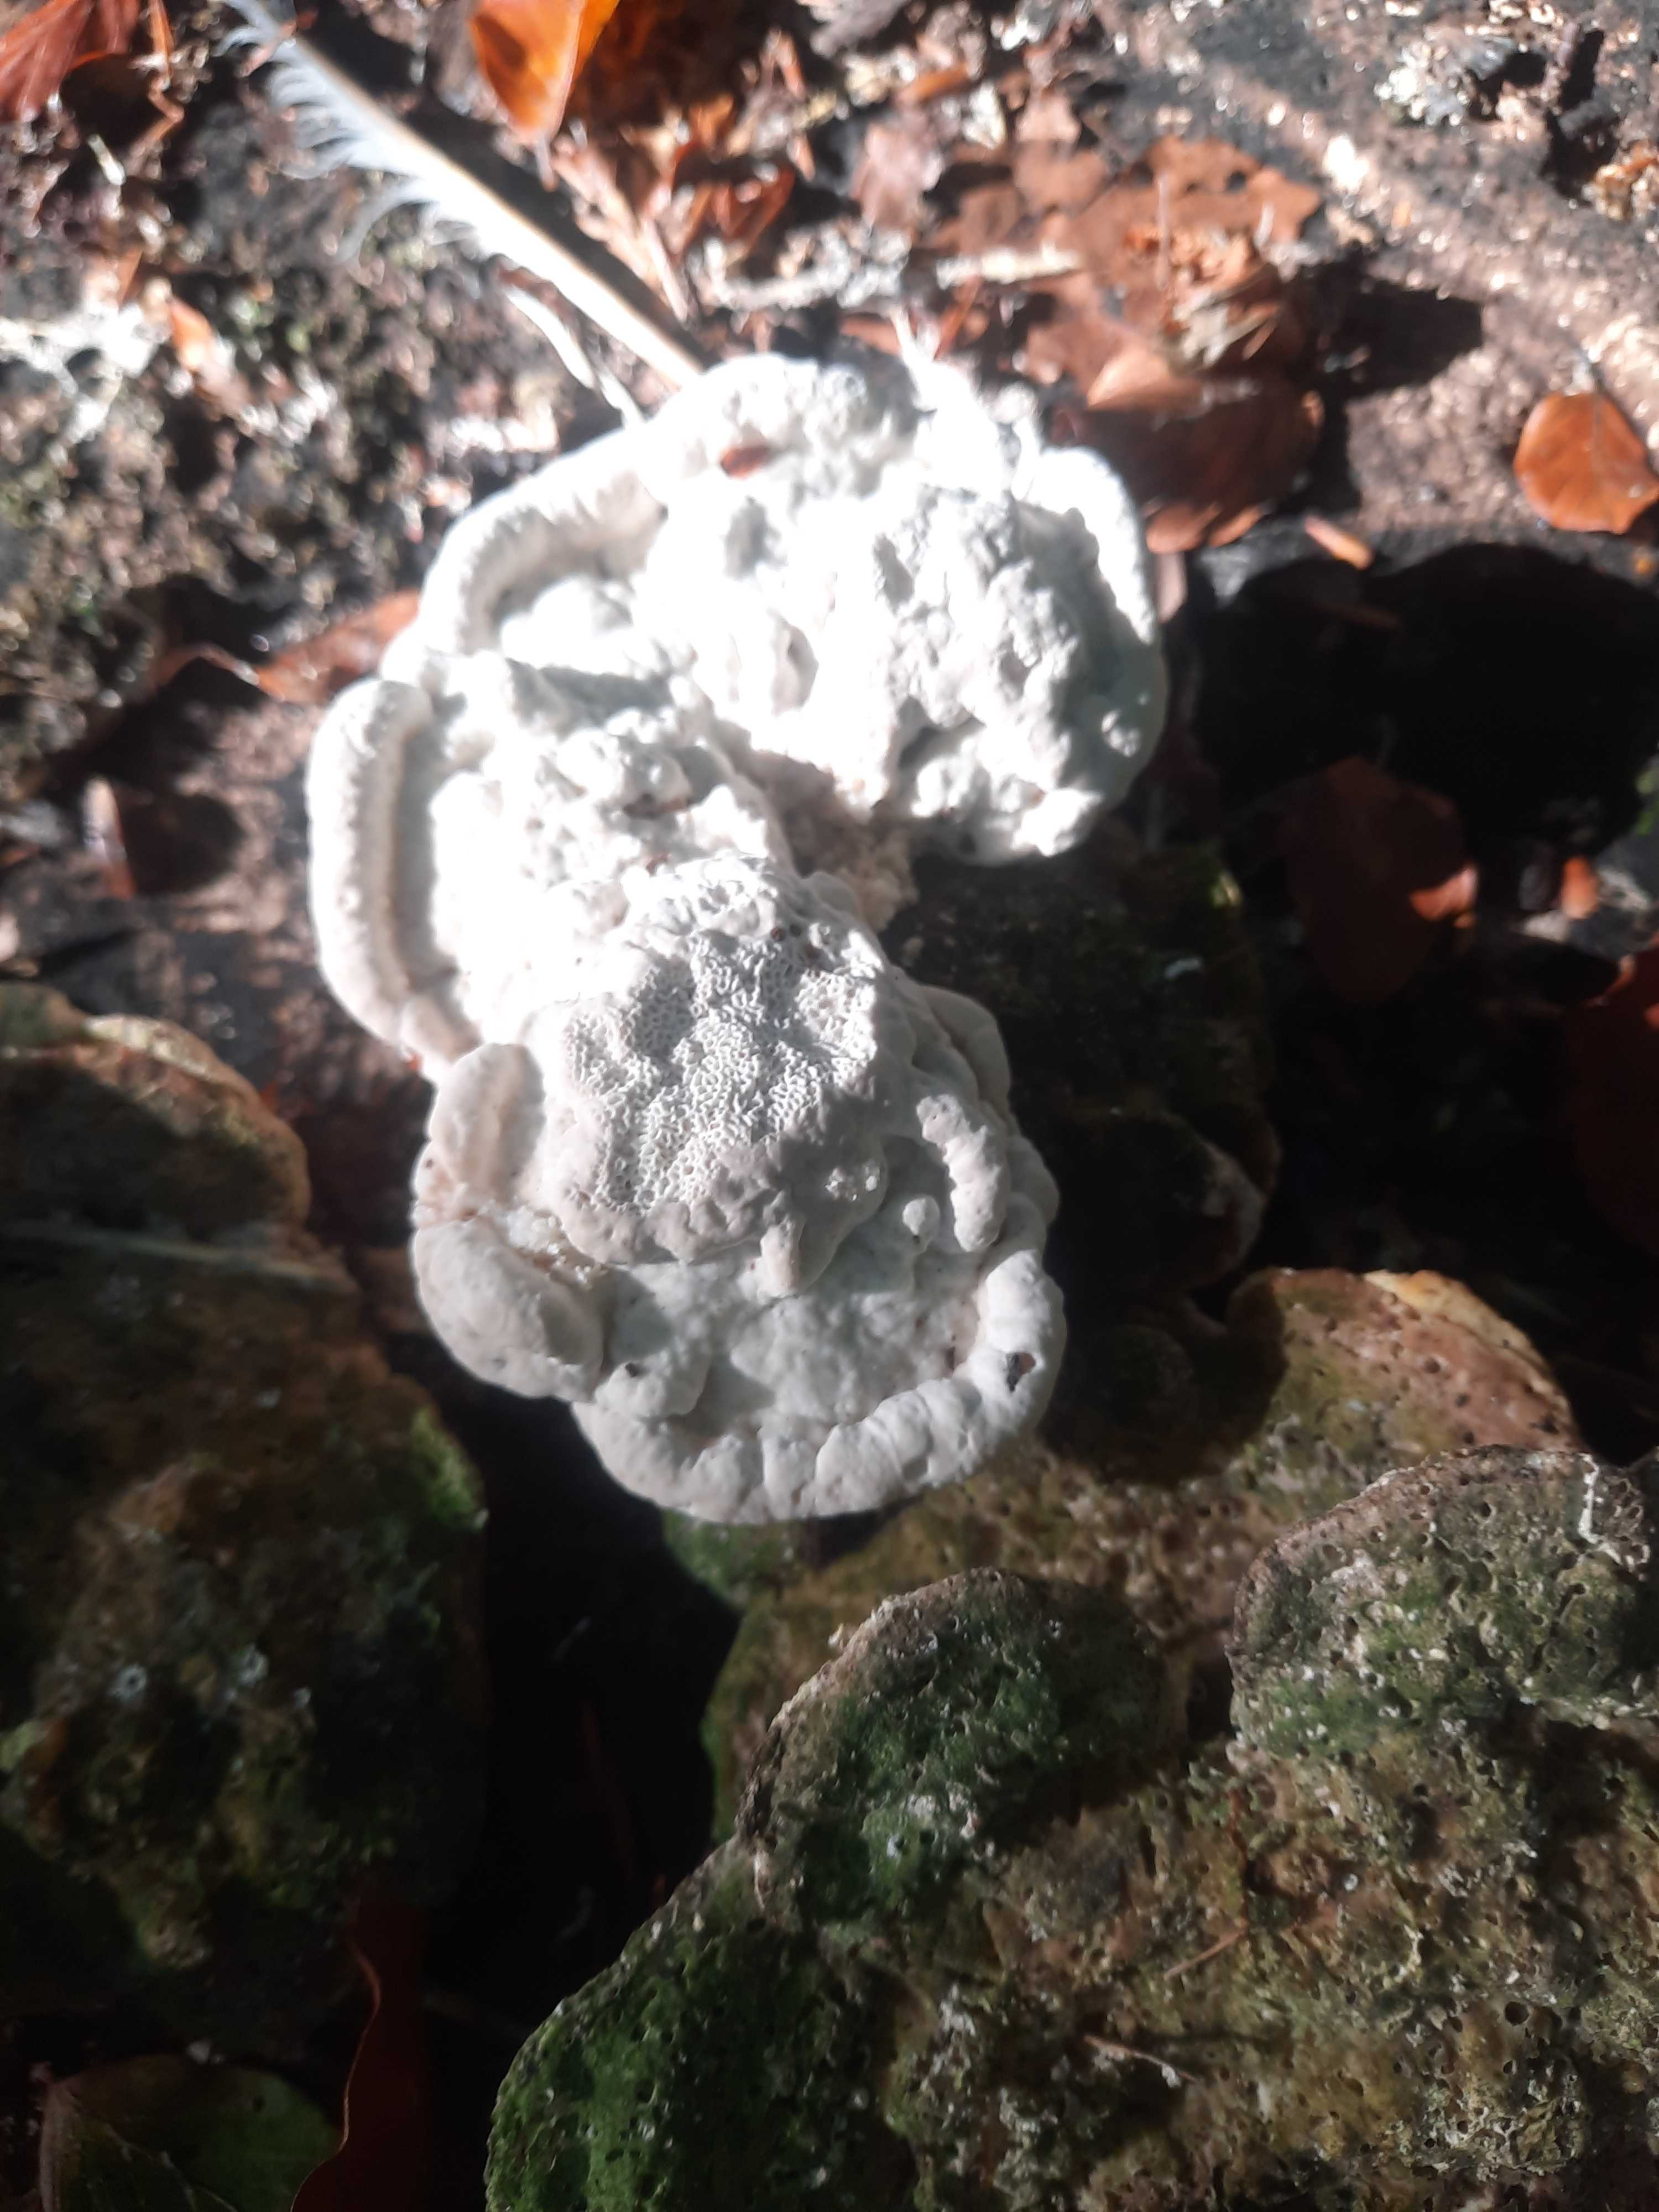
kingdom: Fungi
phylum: Basidiomycota
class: Agaricomycetes
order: Polyporales
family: Polyporaceae
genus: Trametes
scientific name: Trametes gibbosa
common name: puklet læderporesvamp
